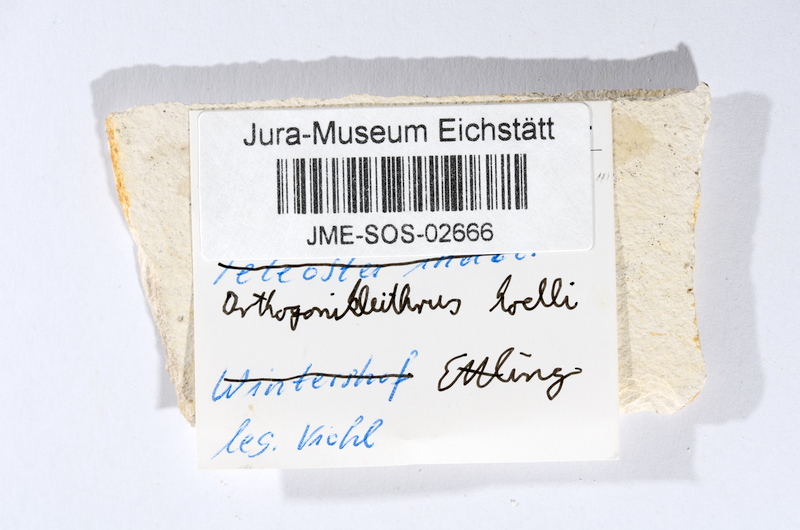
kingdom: Animalia
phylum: Chordata
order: Salmoniformes
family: Orthogonikleithridae
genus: Orthogonikleithrus
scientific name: Orthogonikleithrus hoelli
